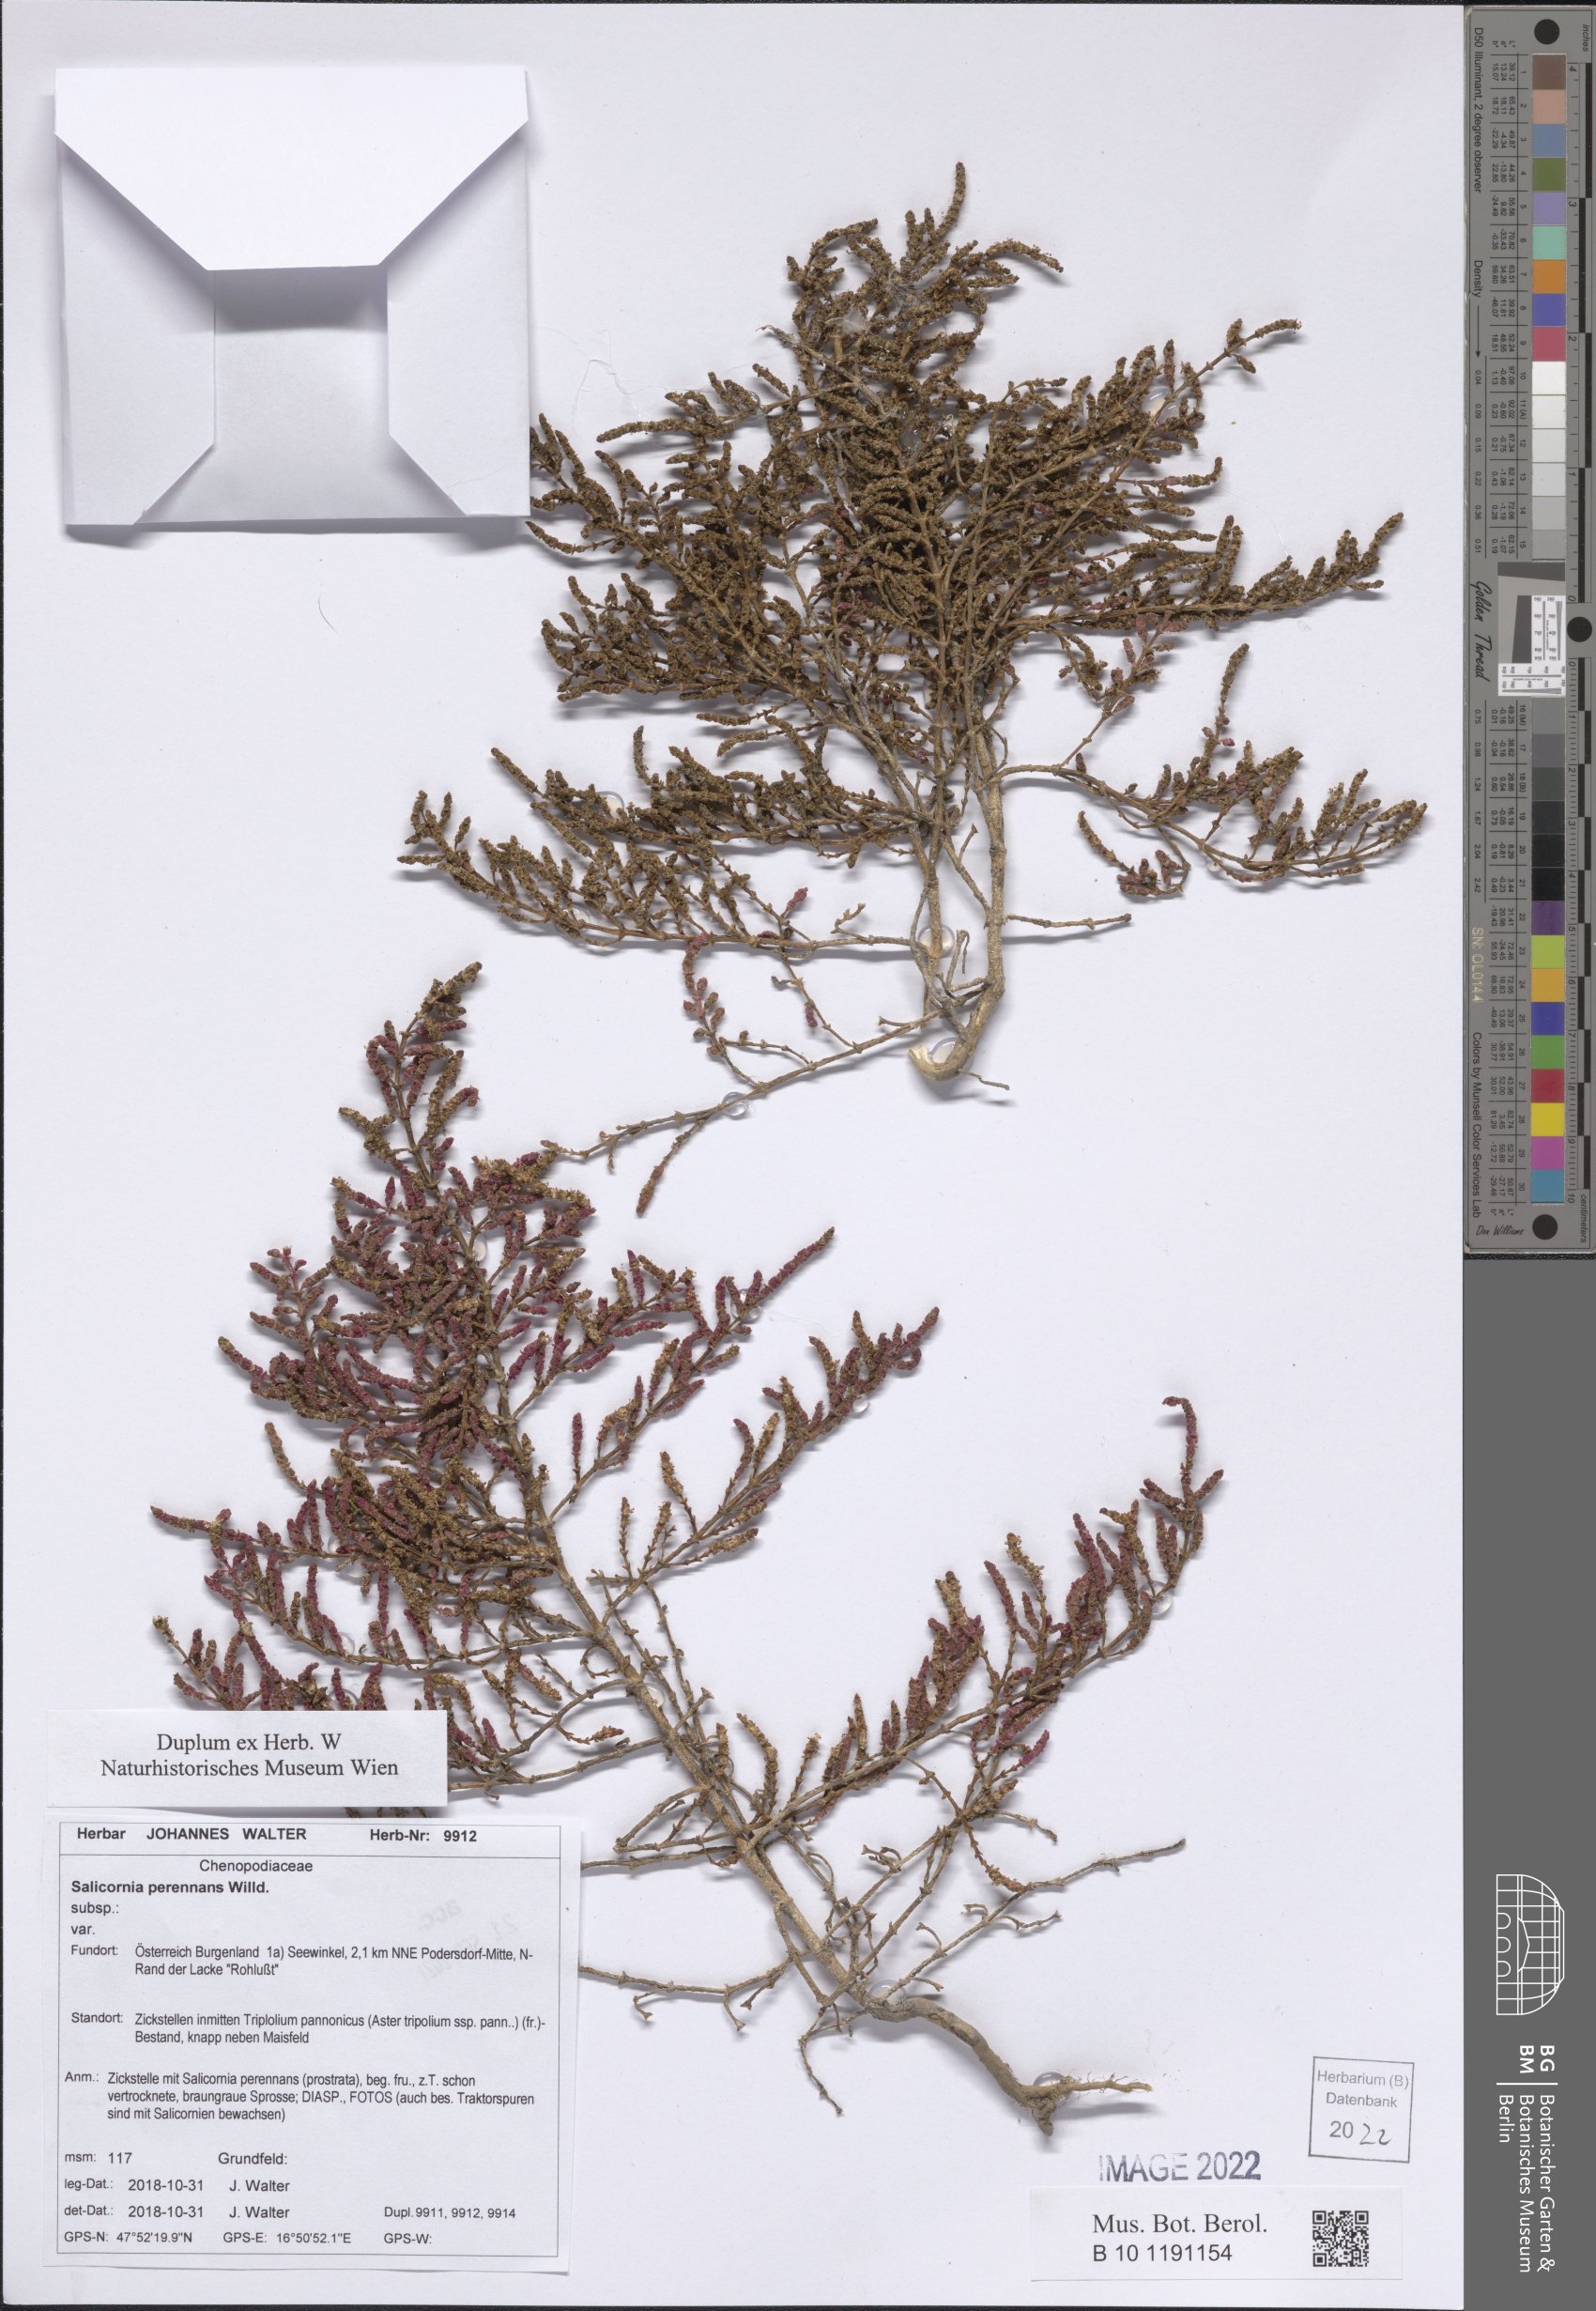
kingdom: Plantae
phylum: Tracheophyta
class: Magnoliopsida
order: Caryophyllales
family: Amaranthaceae
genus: Salicornia
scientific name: Salicornia perennans
